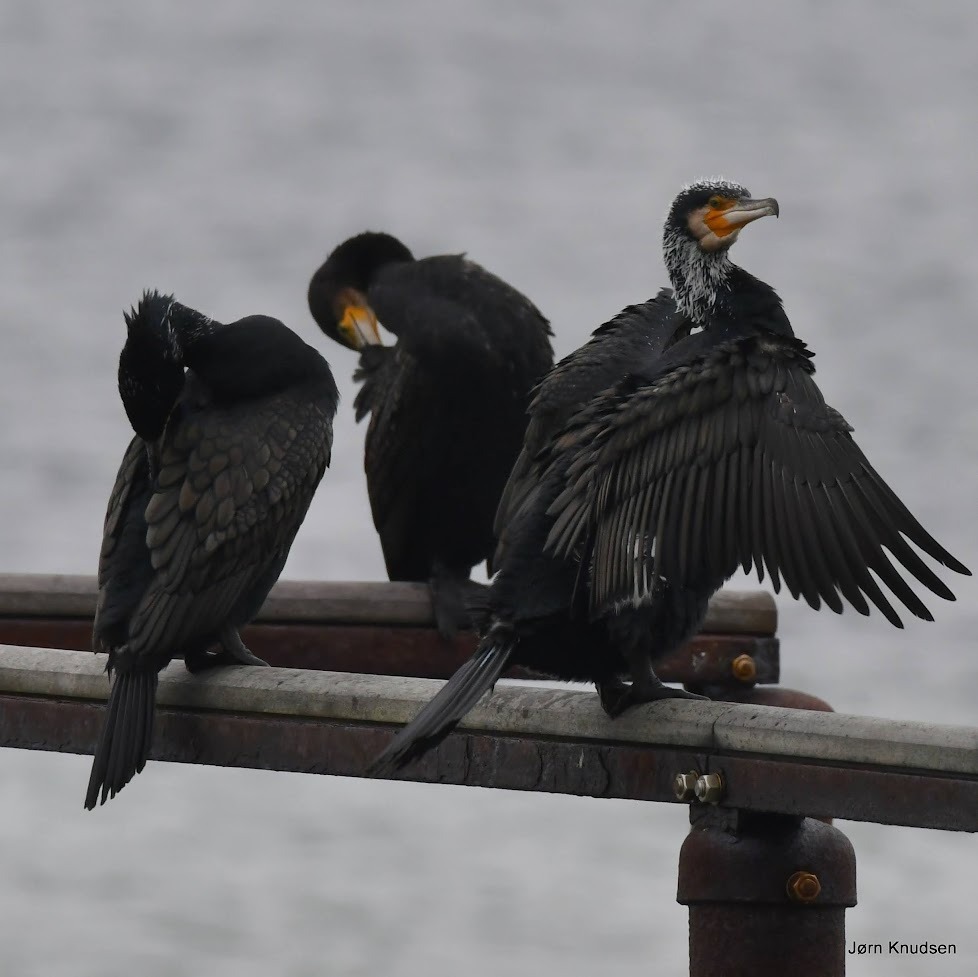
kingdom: Animalia
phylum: Chordata
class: Aves
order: Suliformes
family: Phalacrocoracidae
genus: Phalacrocorax
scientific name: Phalacrocorax carbo
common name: Mellemskarv
